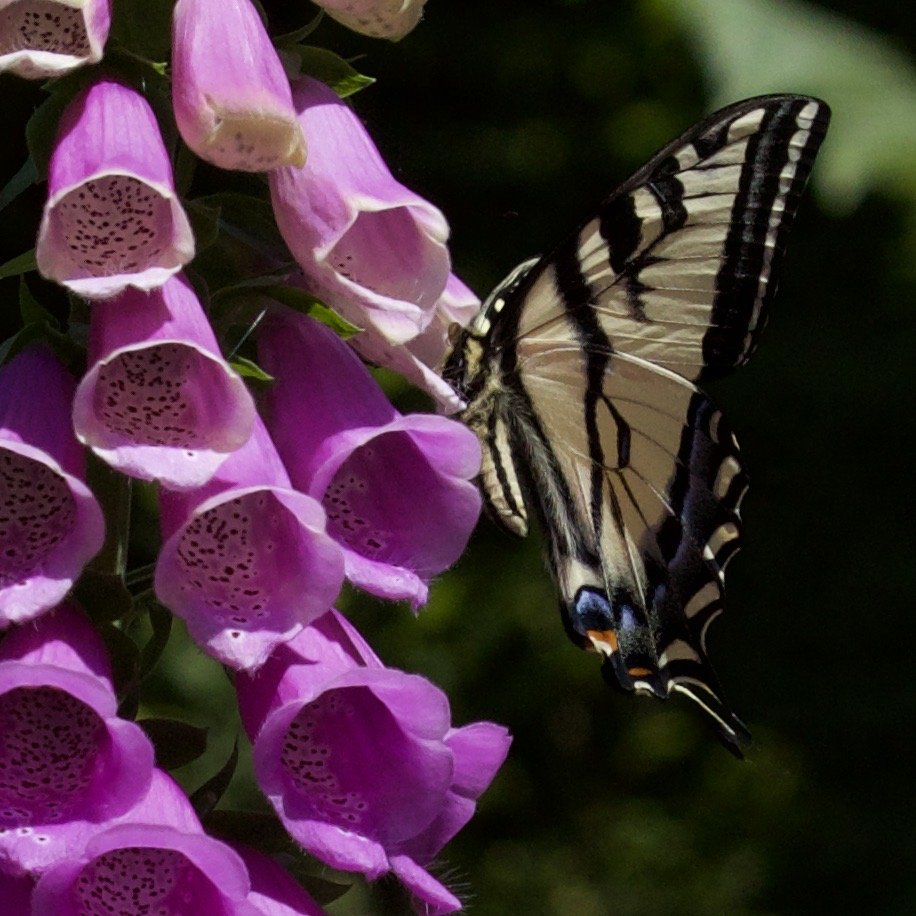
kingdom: Animalia
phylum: Arthropoda
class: Insecta
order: Lepidoptera
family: Papilionidae
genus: Pterourus
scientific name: Pterourus rutulus
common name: Western Tiger Swallowtail
